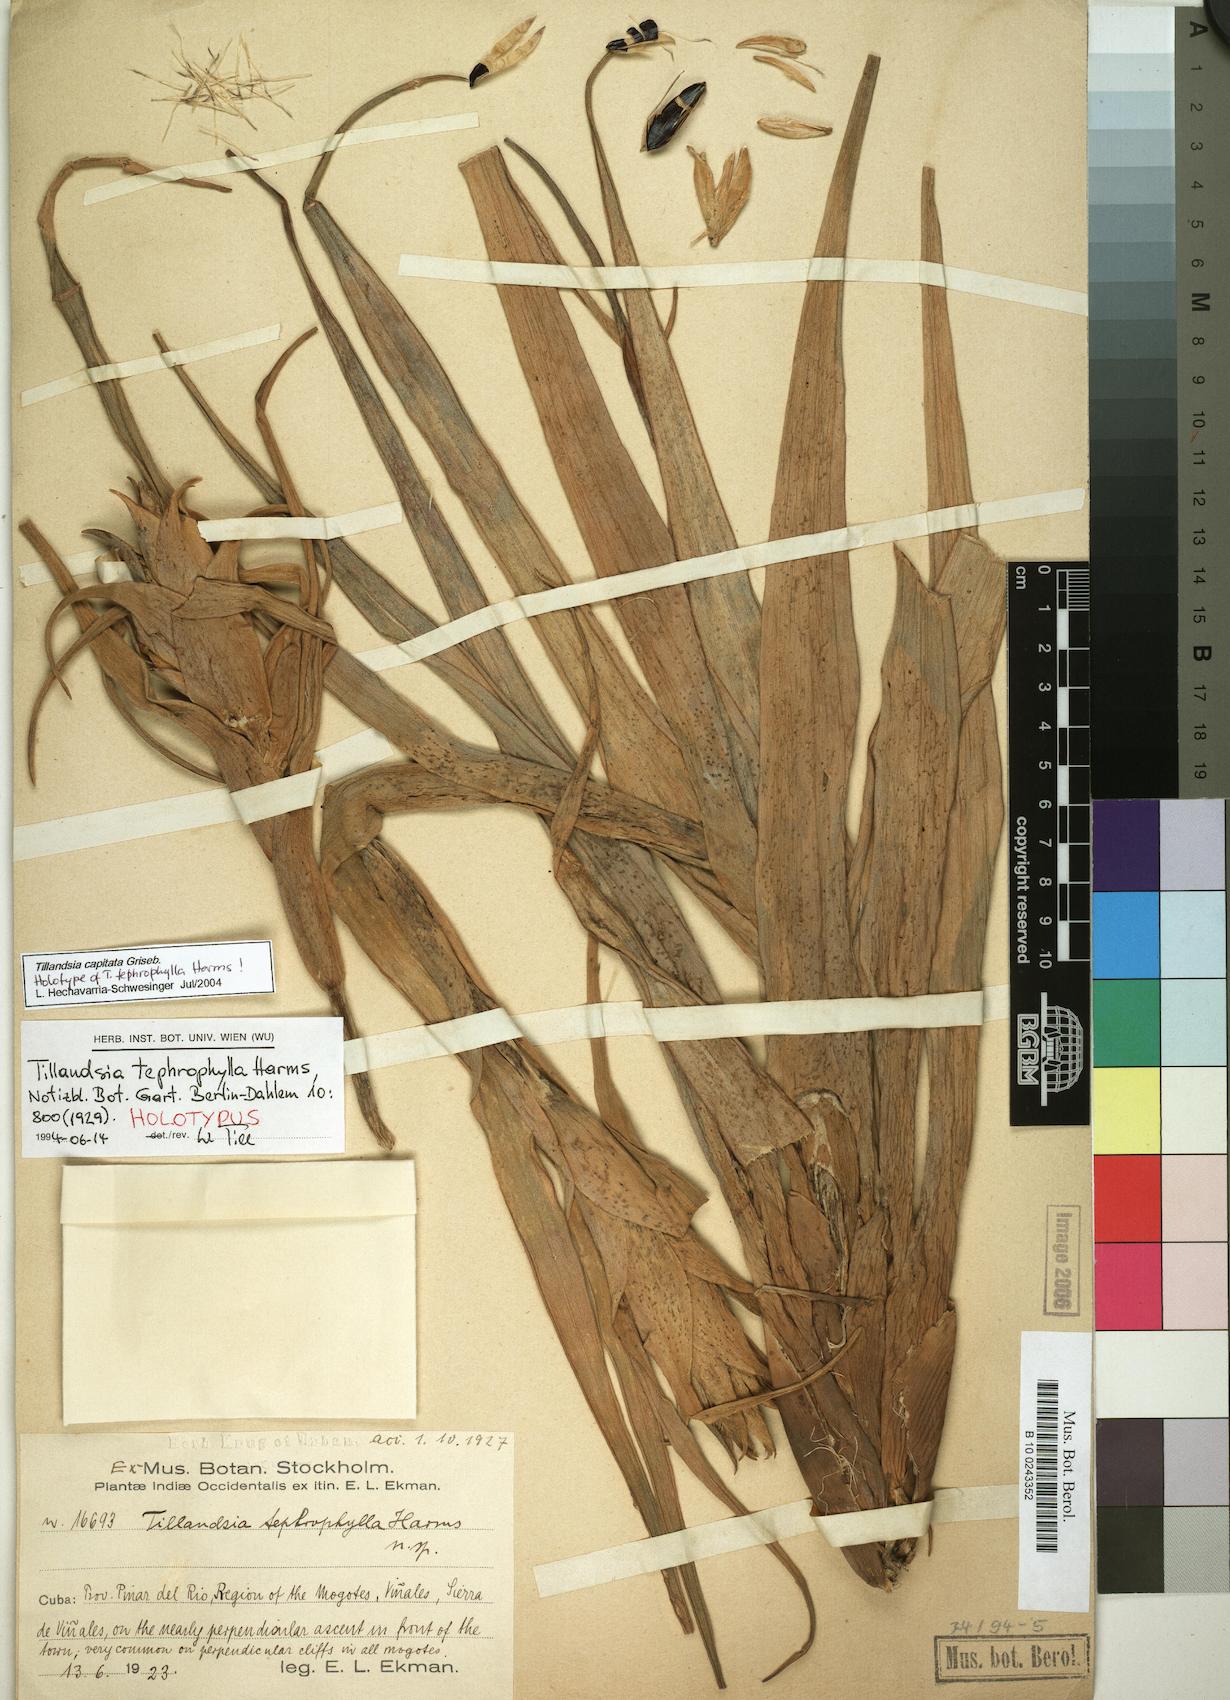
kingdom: Plantae
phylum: Tracheophyta
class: Liliopsida
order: Poales
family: Bromeliaceae
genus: Tillandsia
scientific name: Tillandsia capitata
